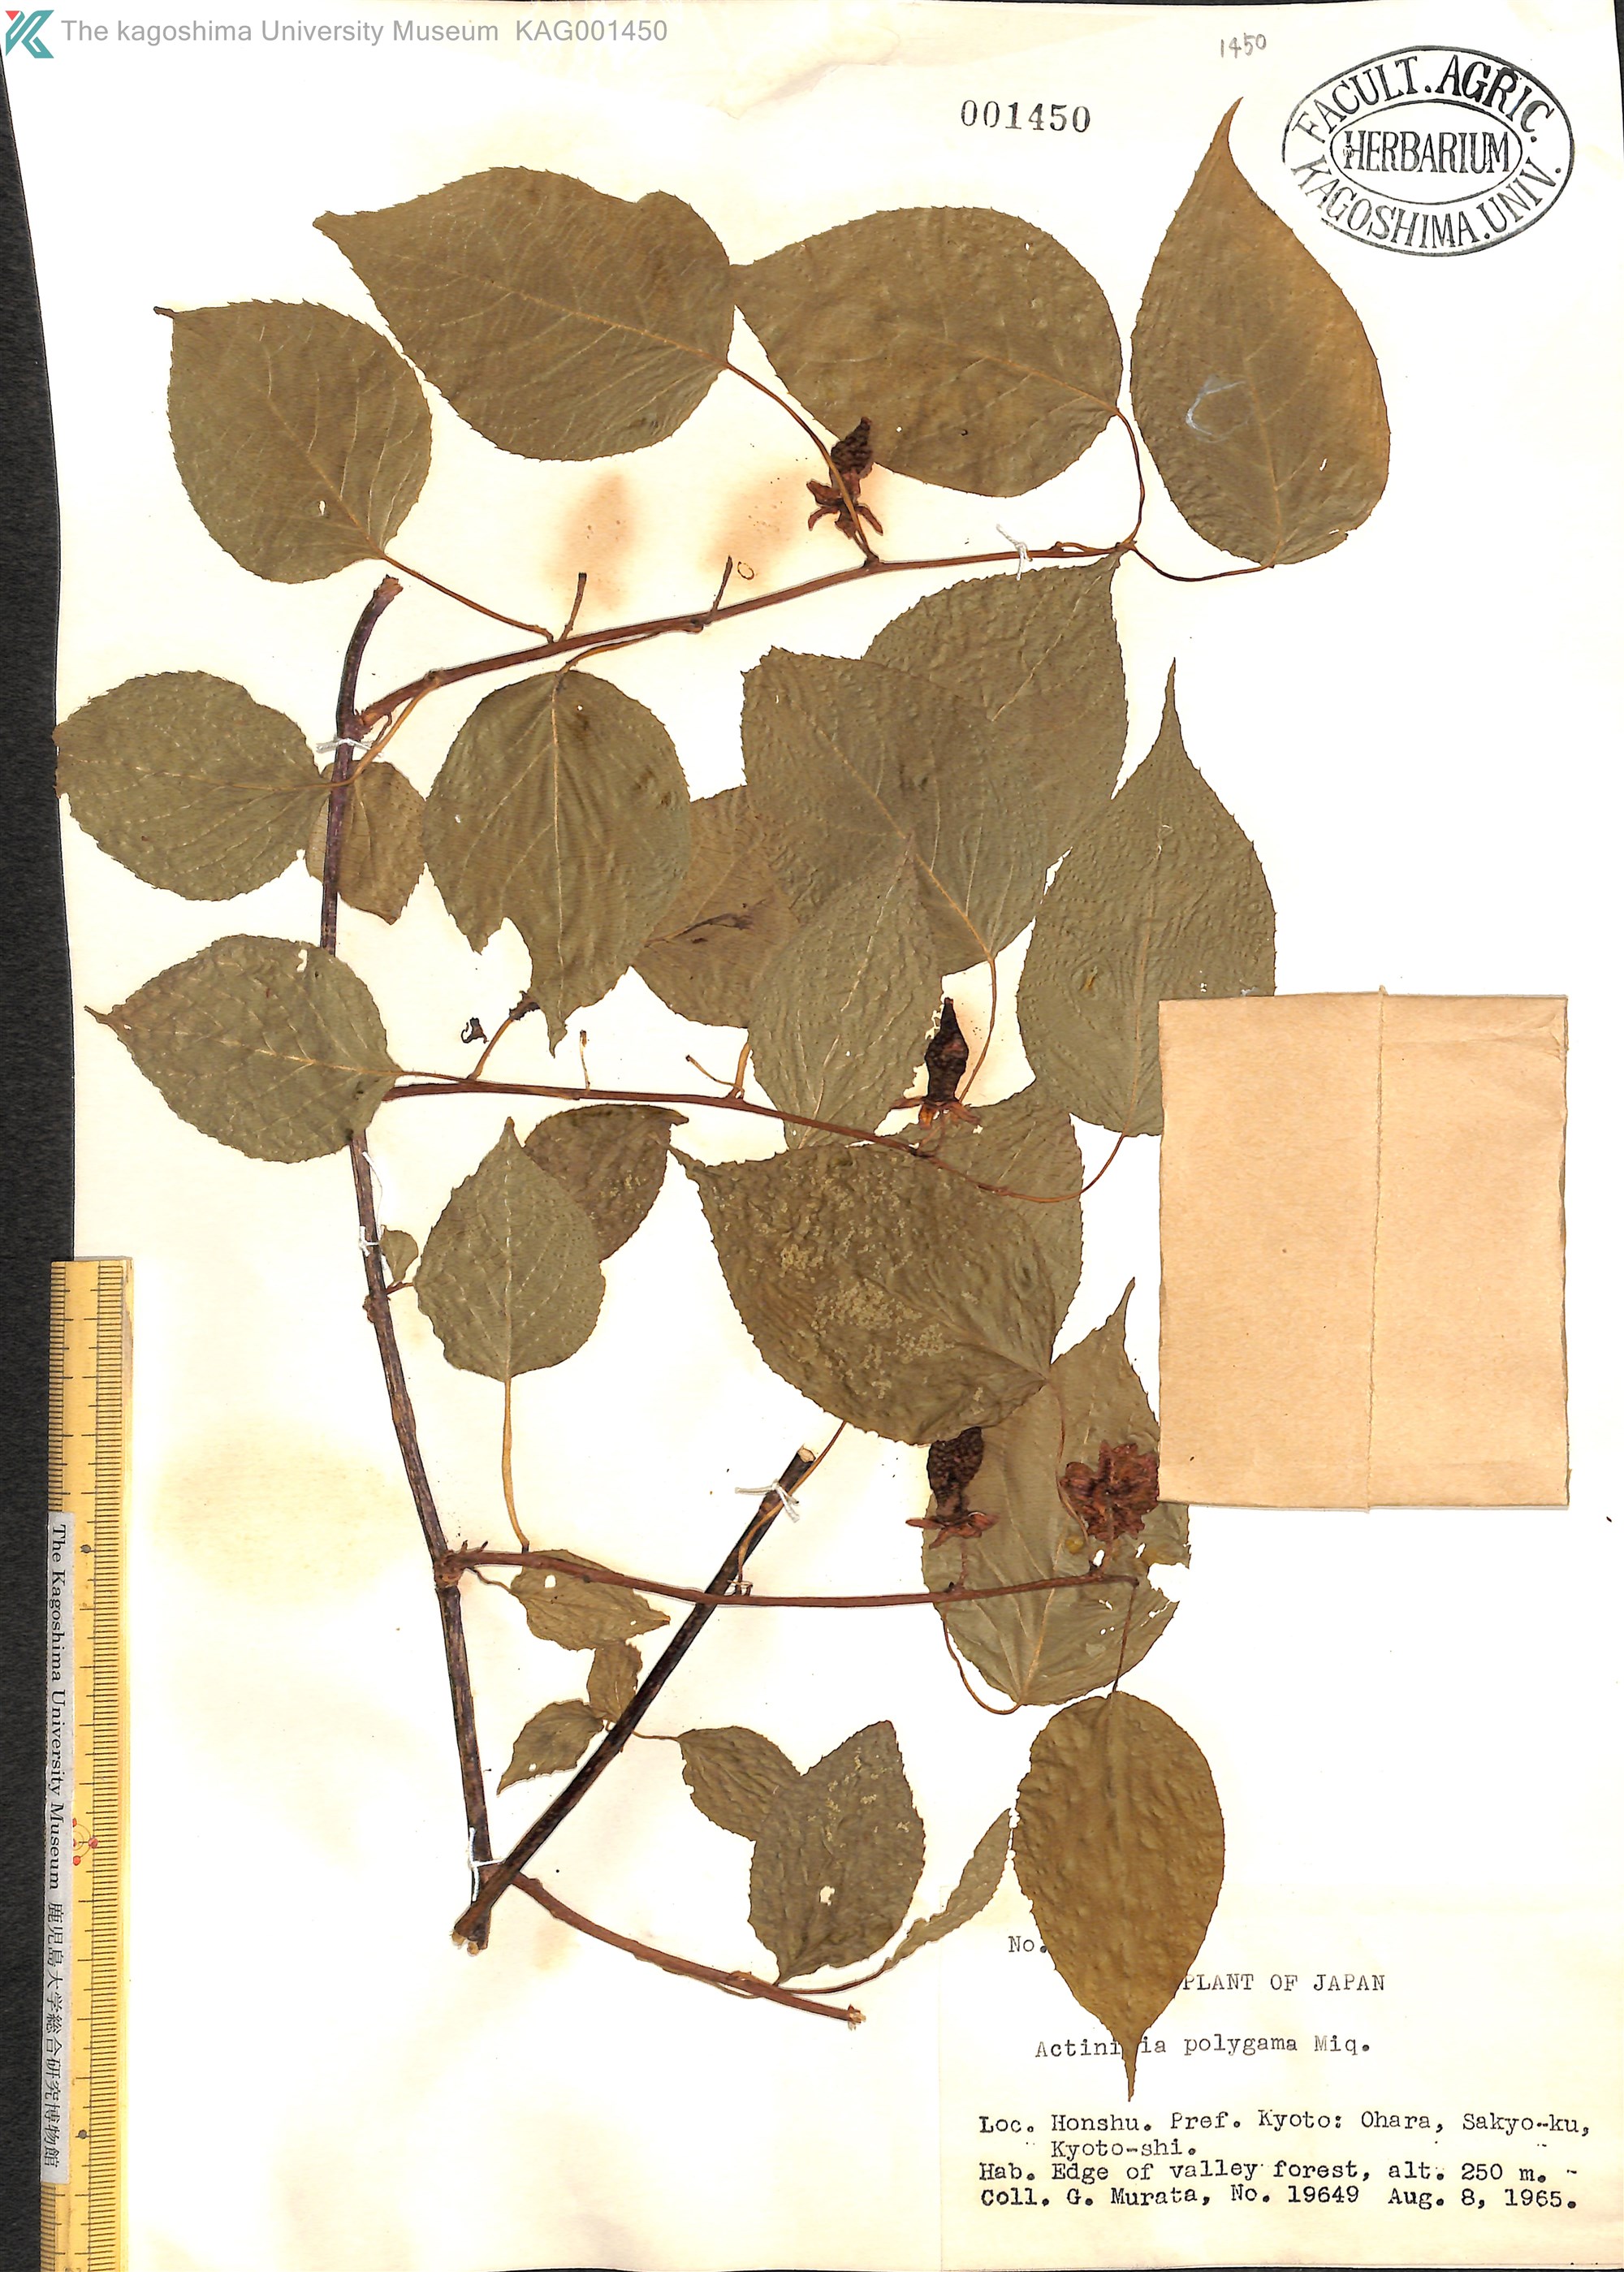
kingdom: Plantae
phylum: Tracheophyta
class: Magnoliopsida
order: Ericales
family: Actinidiaceae
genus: Actinidia
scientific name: Actinidia polygama
